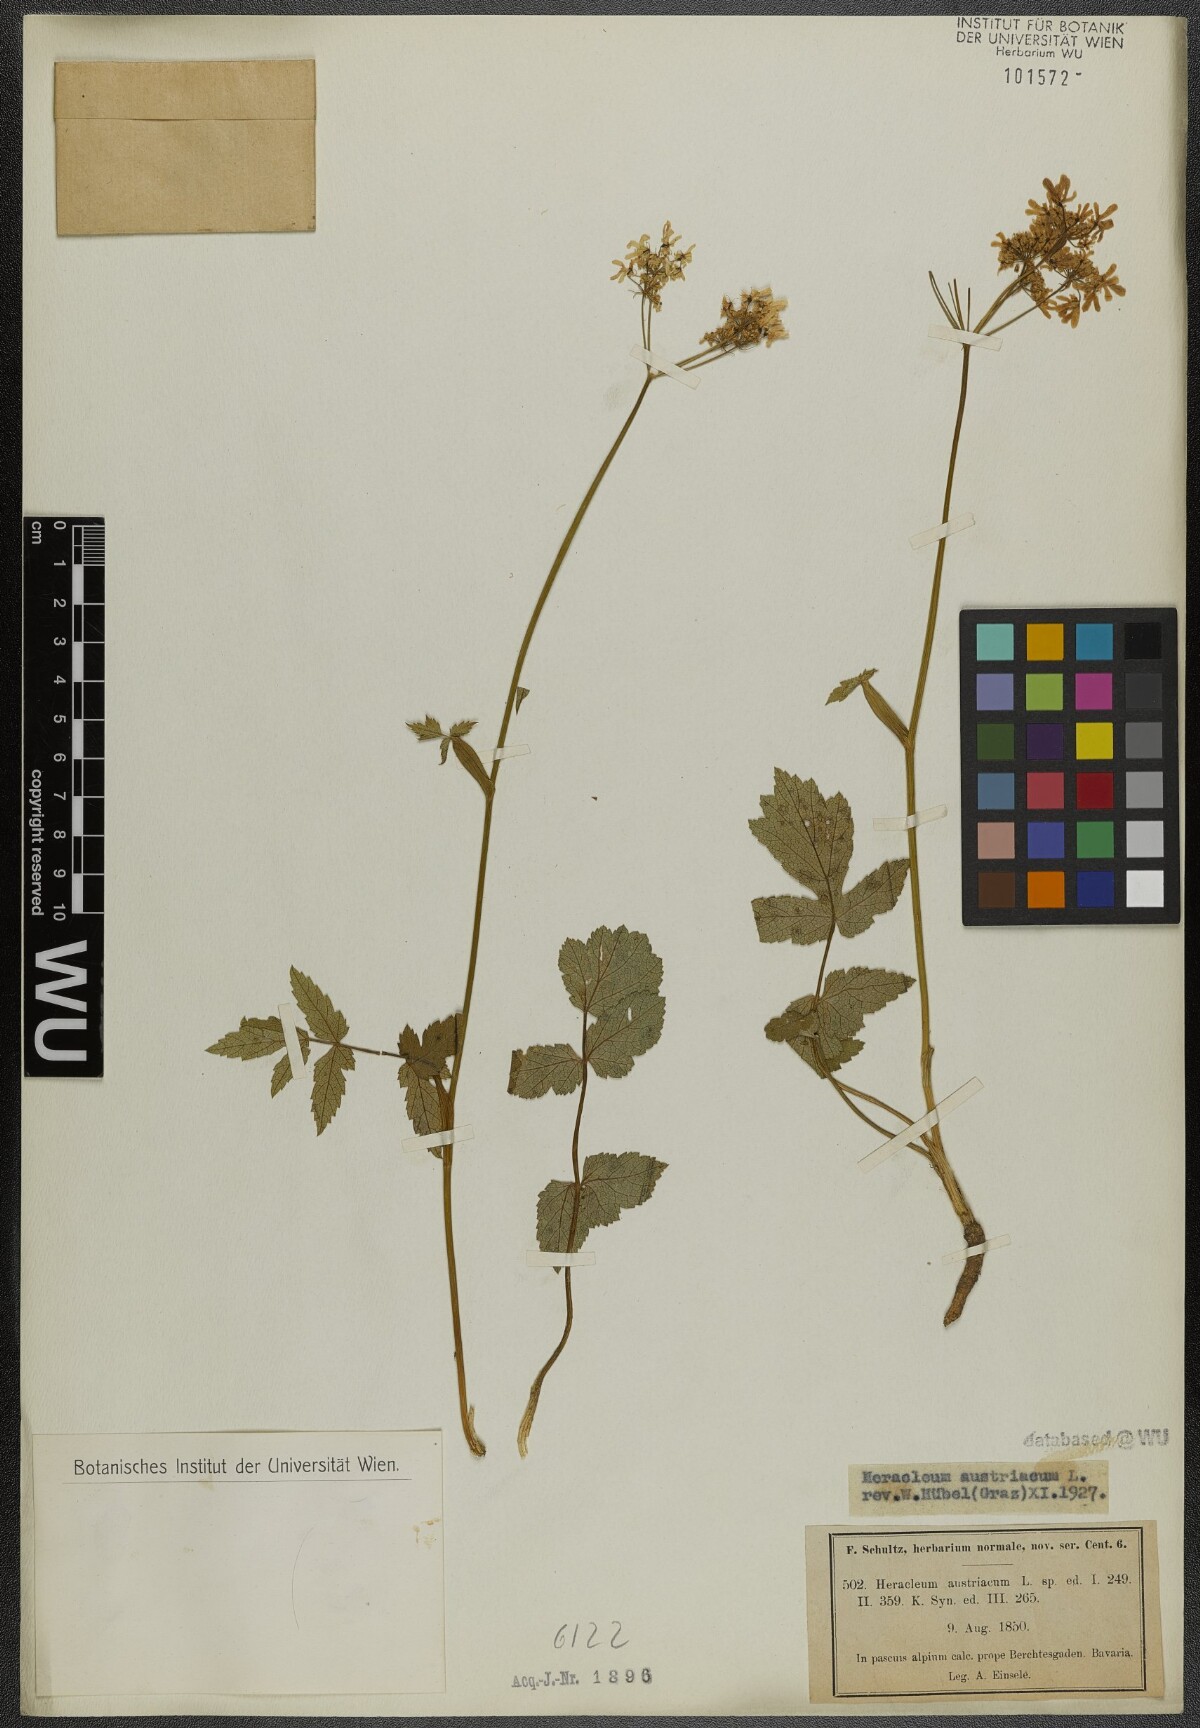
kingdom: Plantae
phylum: Tracheophyta
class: Magnoliopsida
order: Apiales
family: Apiaceae
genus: Heracleum
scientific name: Heracleum austriacum
